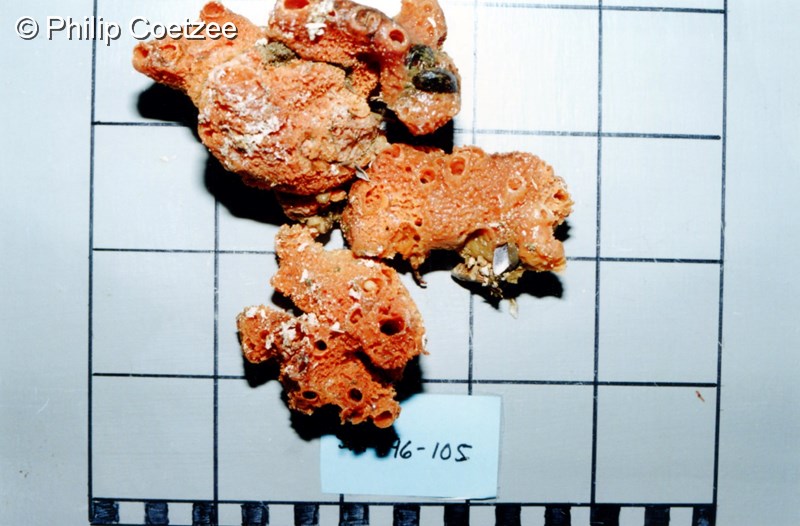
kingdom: Animalia
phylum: Porifera
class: Demospongiae
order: Bubarida
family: Dictyonellidae
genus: Acanthella
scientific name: Acanthella
